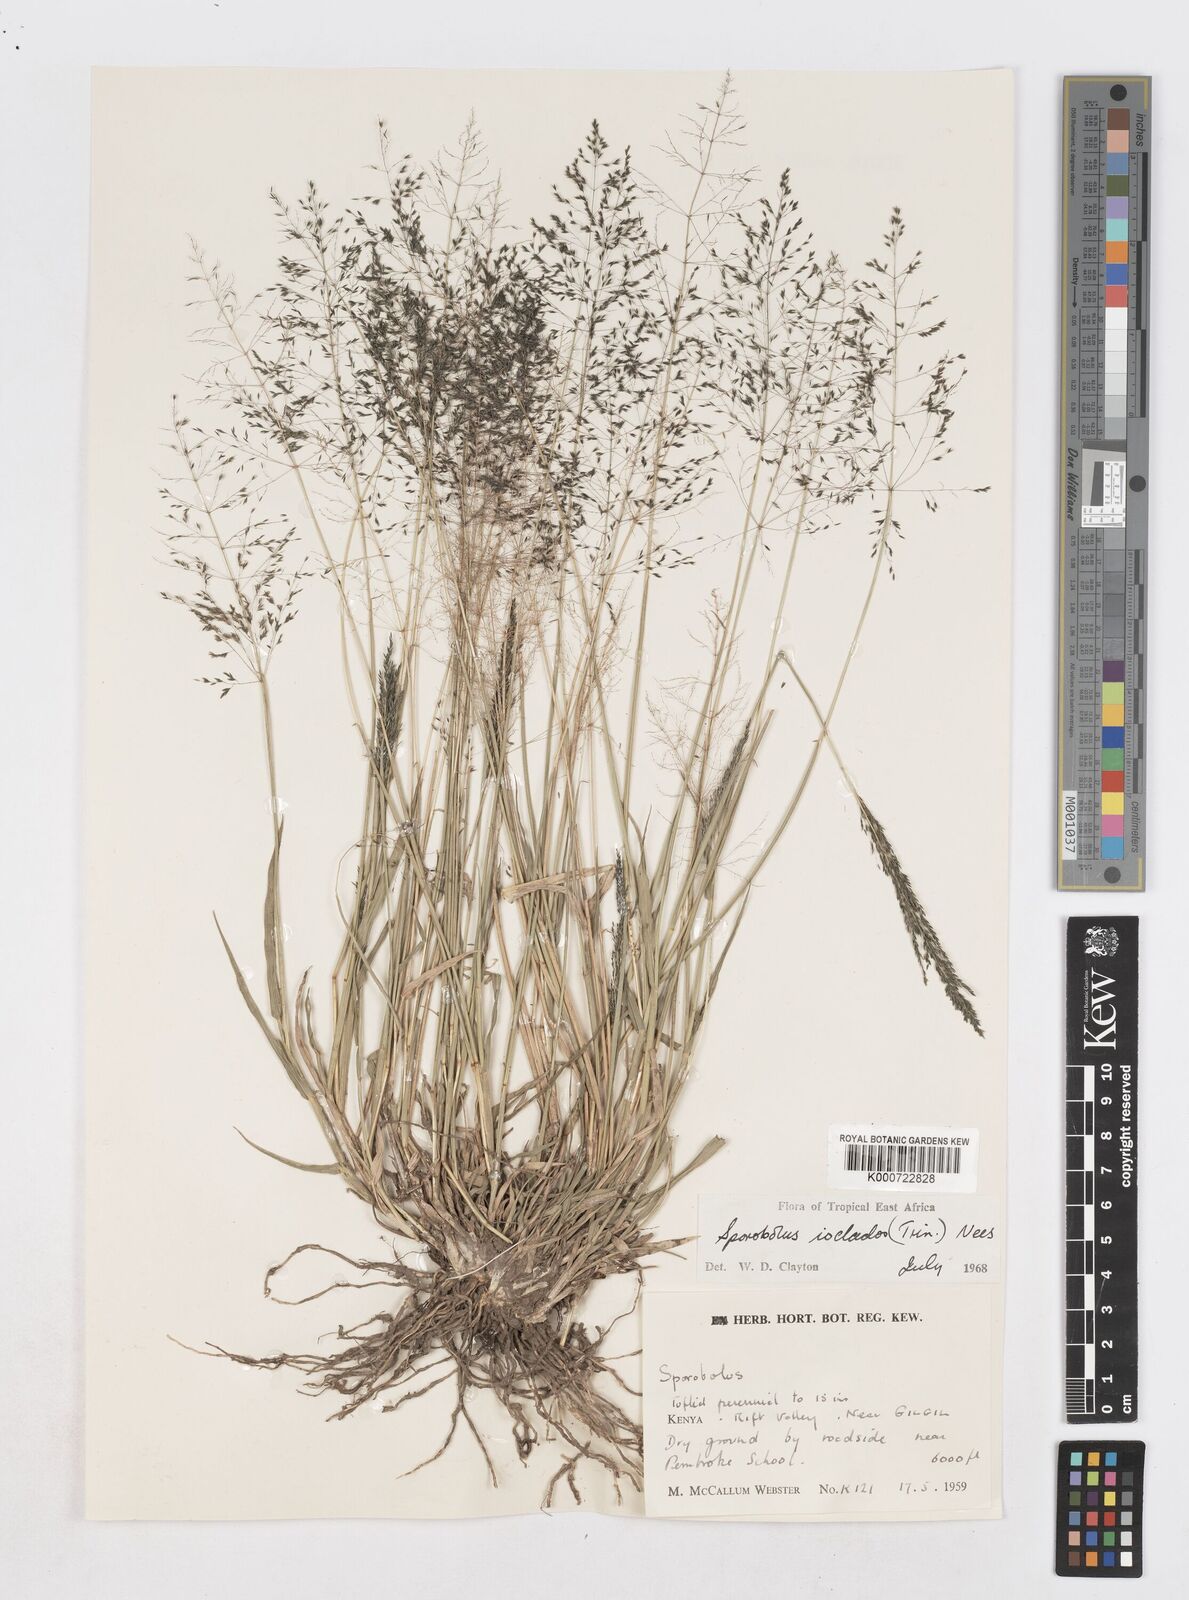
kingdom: Plantae
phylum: Tracheophyta
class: Liliopsida
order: Poales
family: Poaceae
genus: Sporobolus
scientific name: Sporobolus ioclados
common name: Pan dropseed
